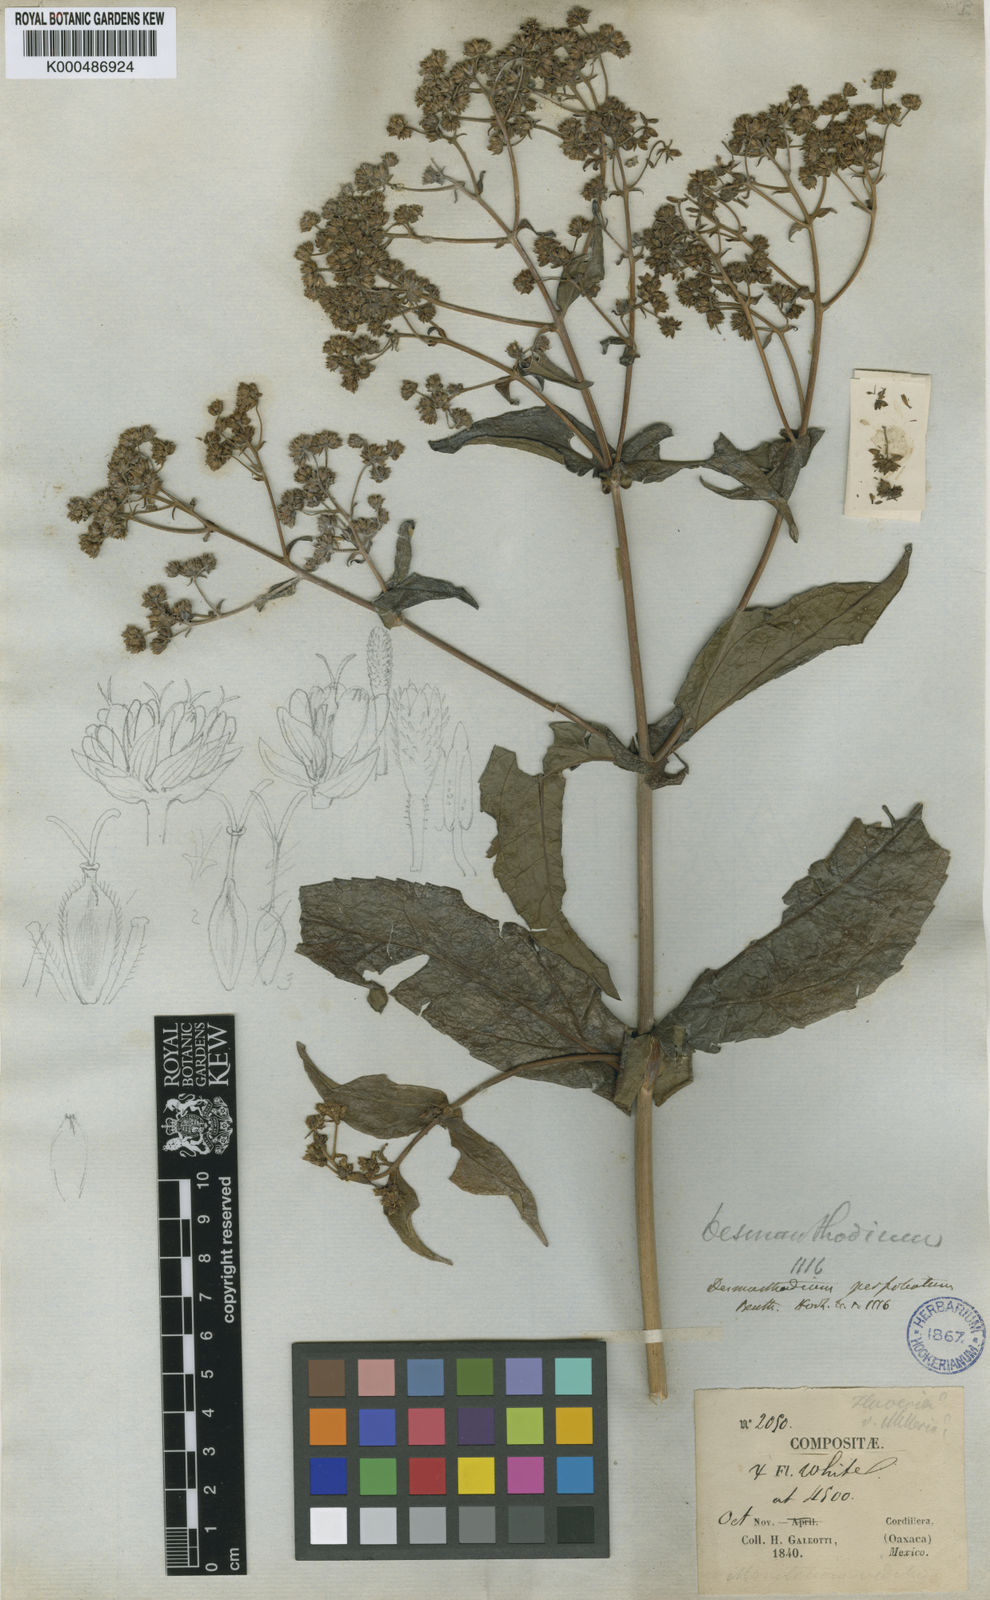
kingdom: Plantae
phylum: Tracheophyta
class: Magnoliopsida
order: Asterales
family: Asteraceae
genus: Desmanthodium
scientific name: Desmanthodium perfoliatum
